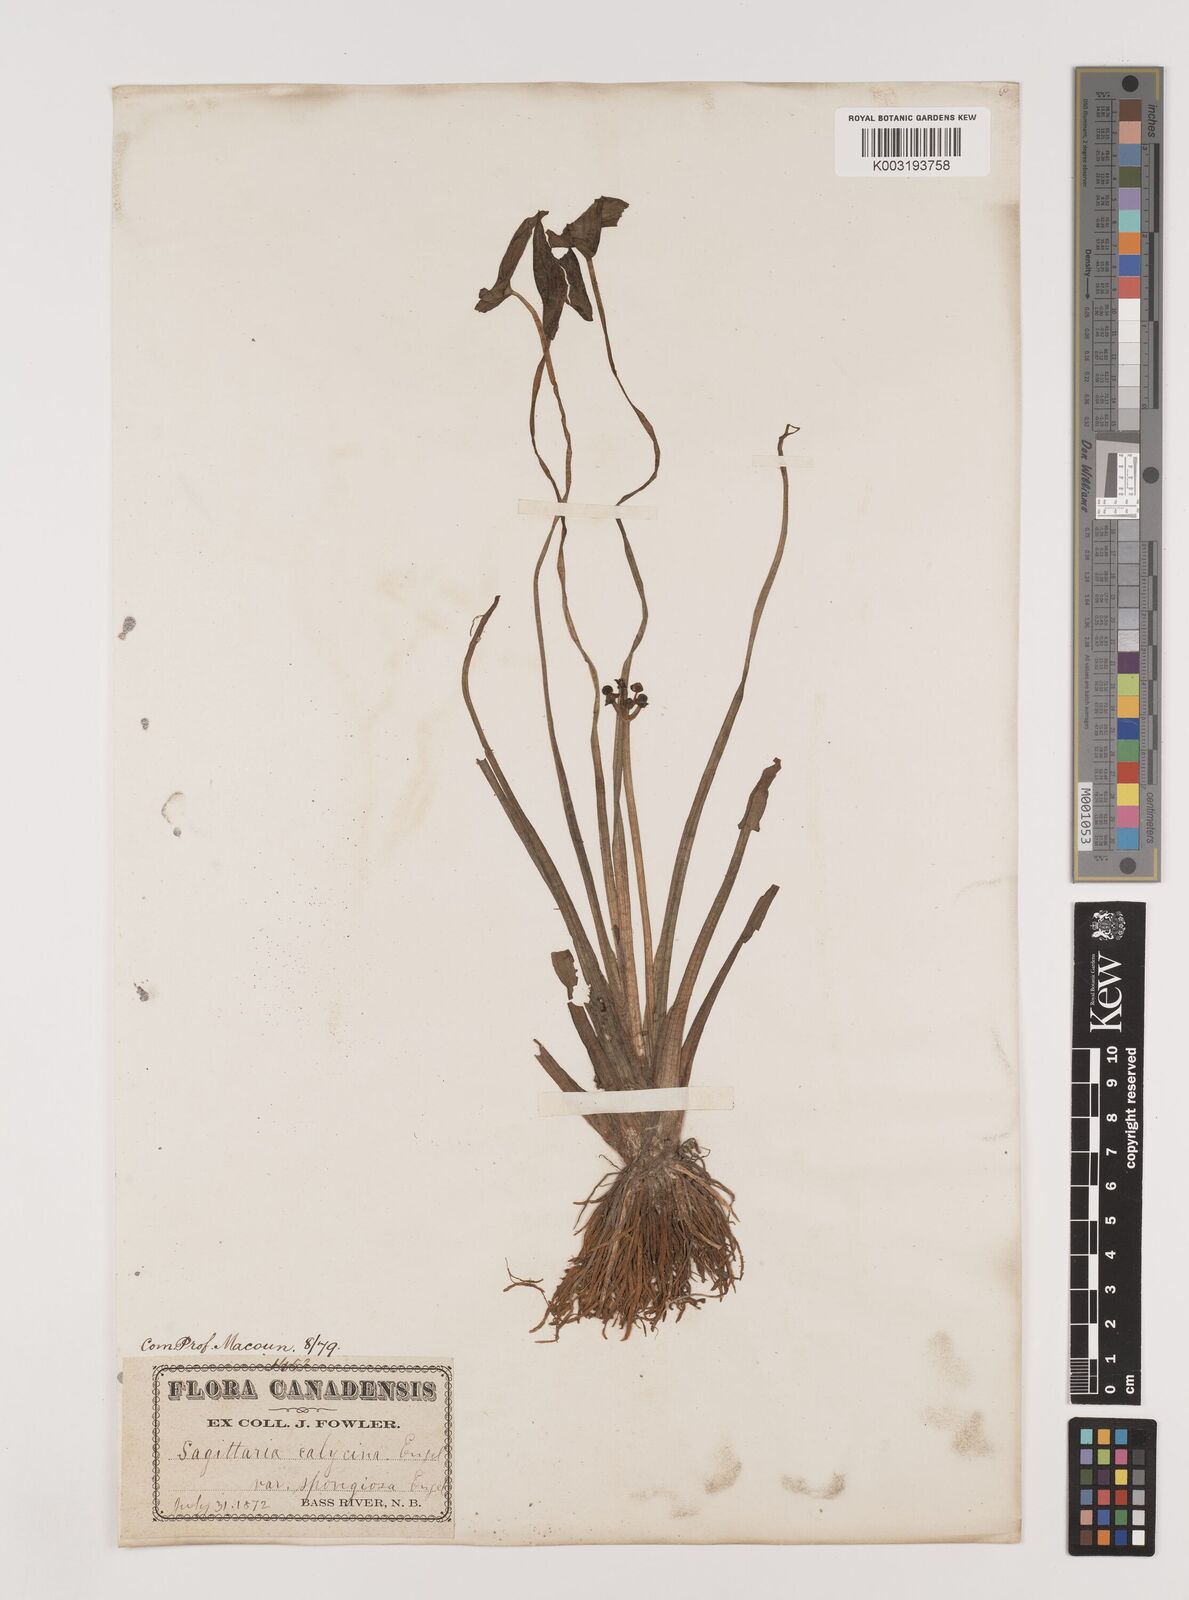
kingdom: Plantae
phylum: Tracheophyta
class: Liliopsida
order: Alismatales
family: Alismataceae
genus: Sagittaria
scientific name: Sagittaria montevidensis
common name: Giant arrowhead
